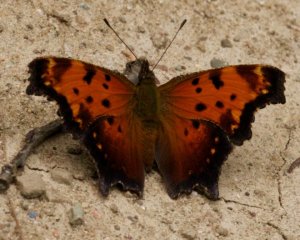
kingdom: Animalia
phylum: Arthropoda
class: Insecta
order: Lepidoptera
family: Nymphalidae
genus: Polygonia
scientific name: Polygonia progne
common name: Gray Comma
